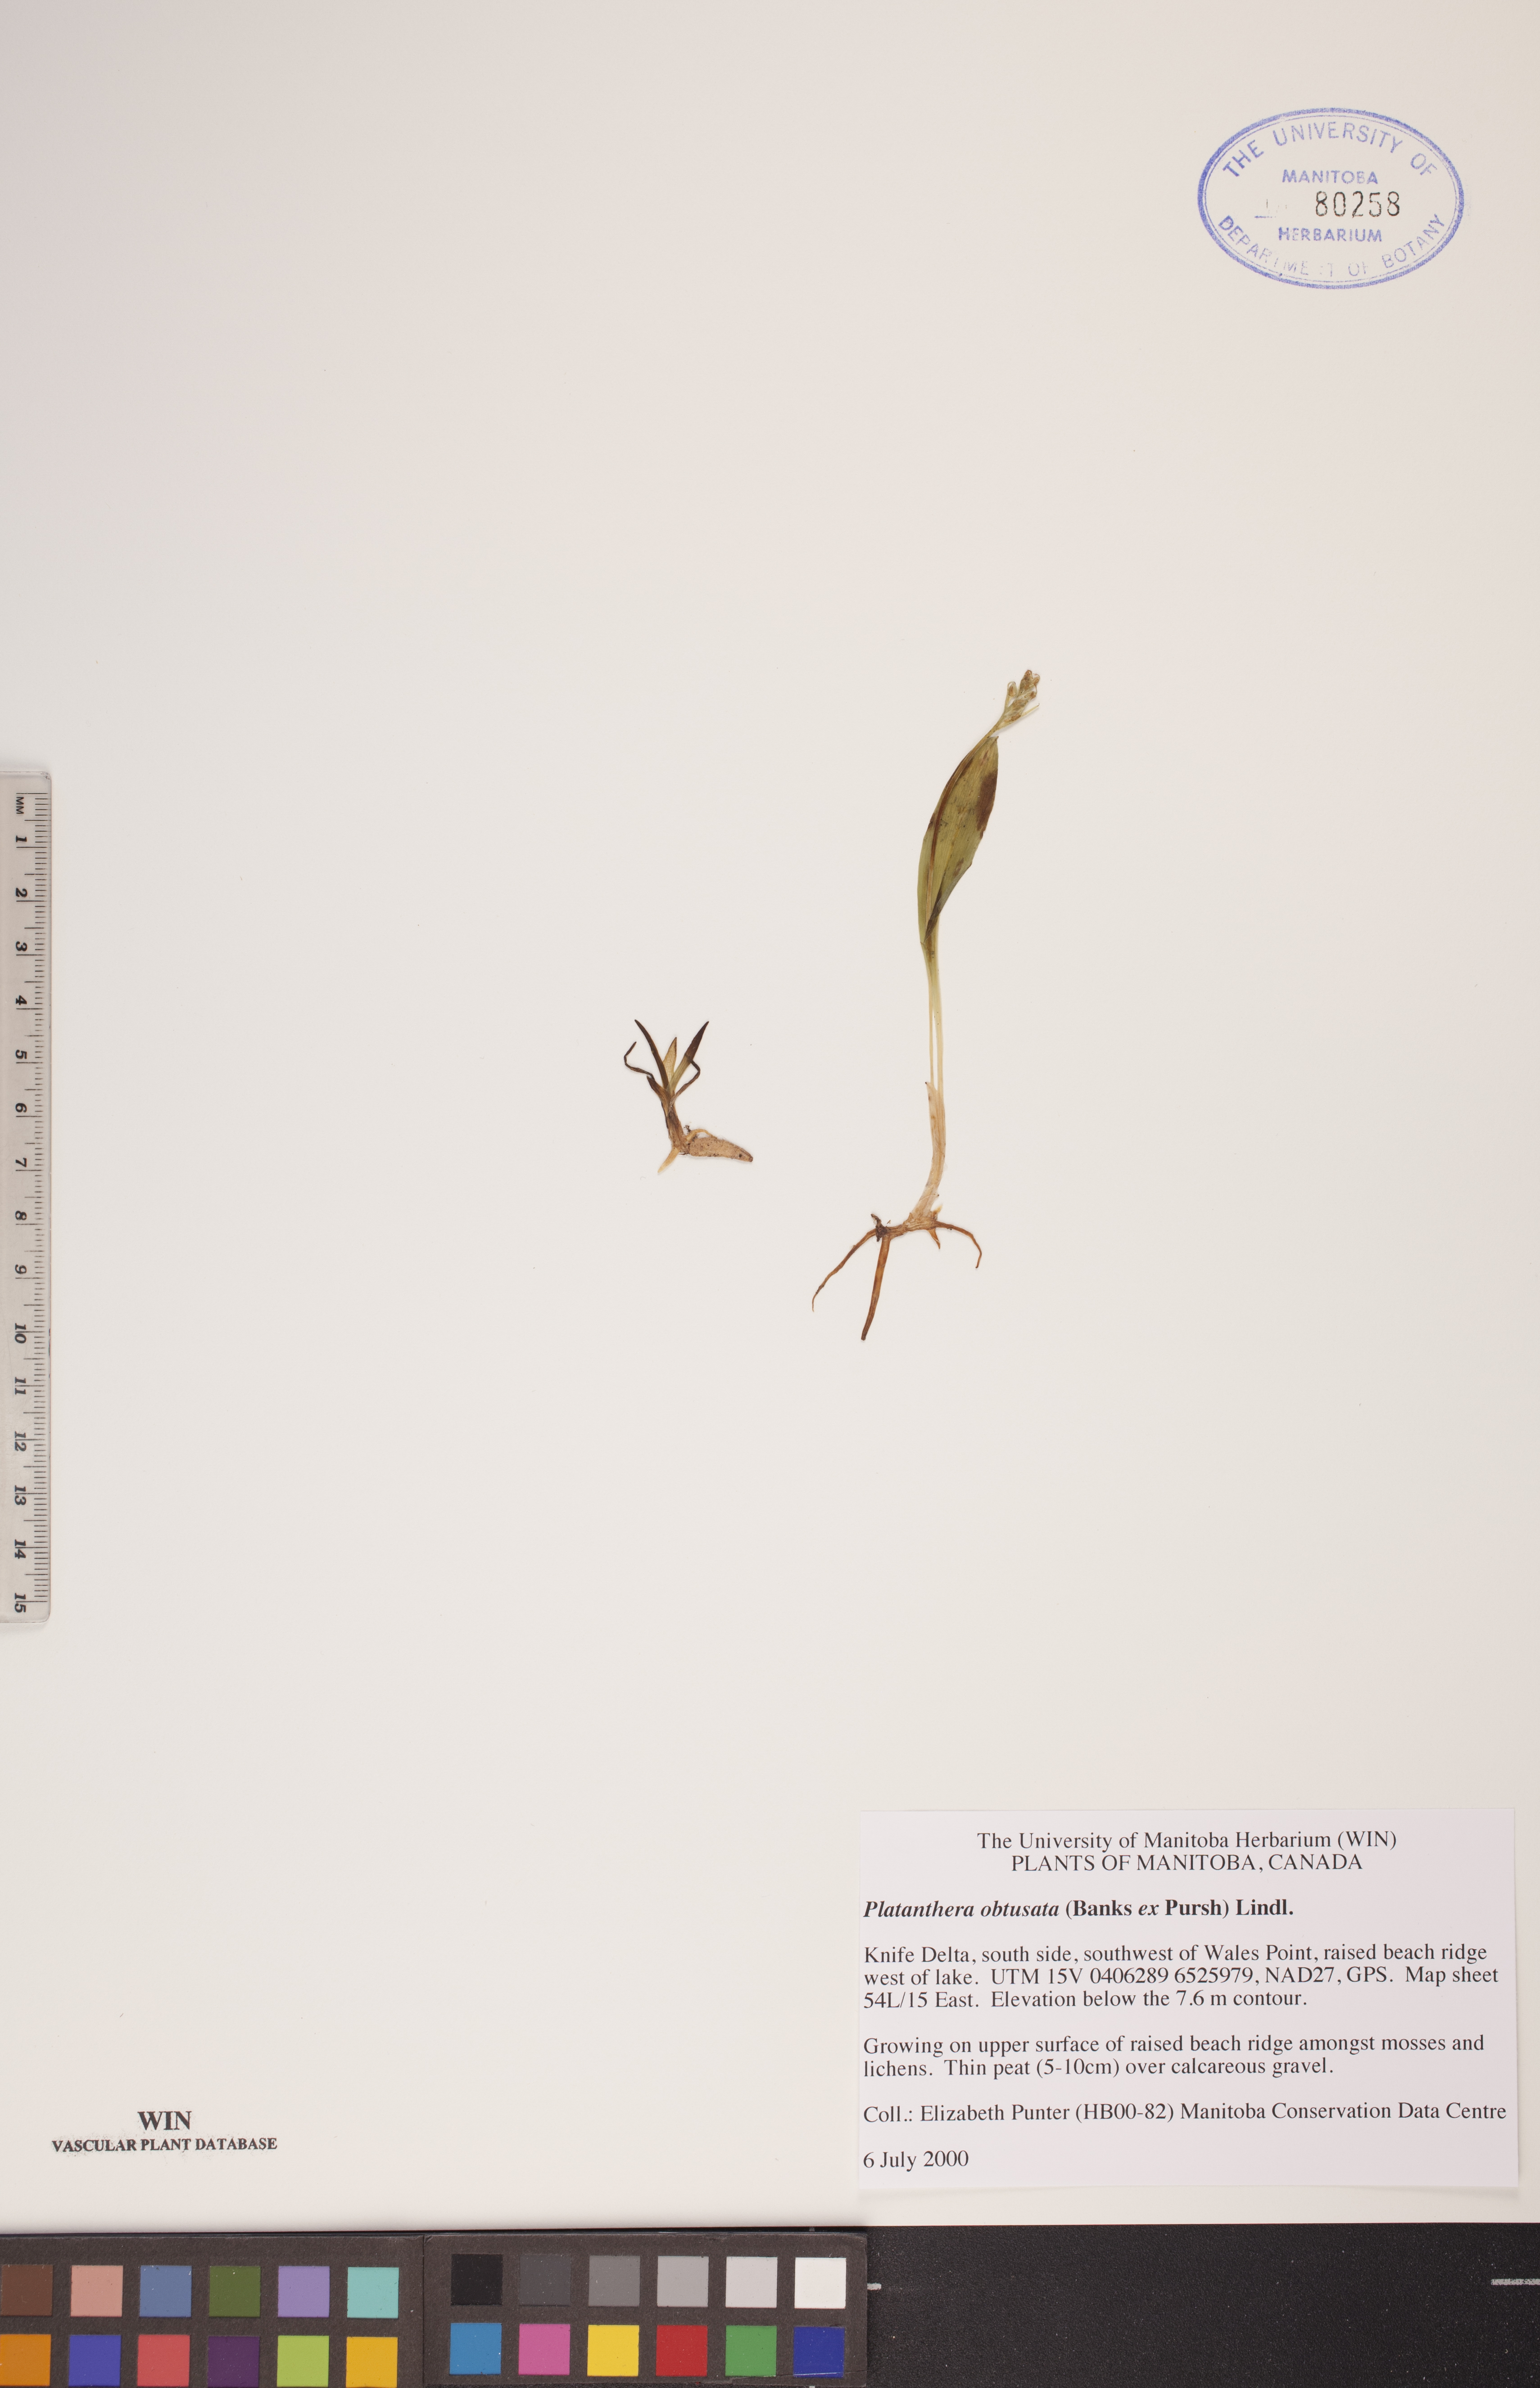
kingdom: Plantae
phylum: Tracheophyta
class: Liliopsida
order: Asparagales
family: Orchidaceae
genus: Platanthera
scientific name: Platanthera obtusata
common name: Blunt bog orchid
